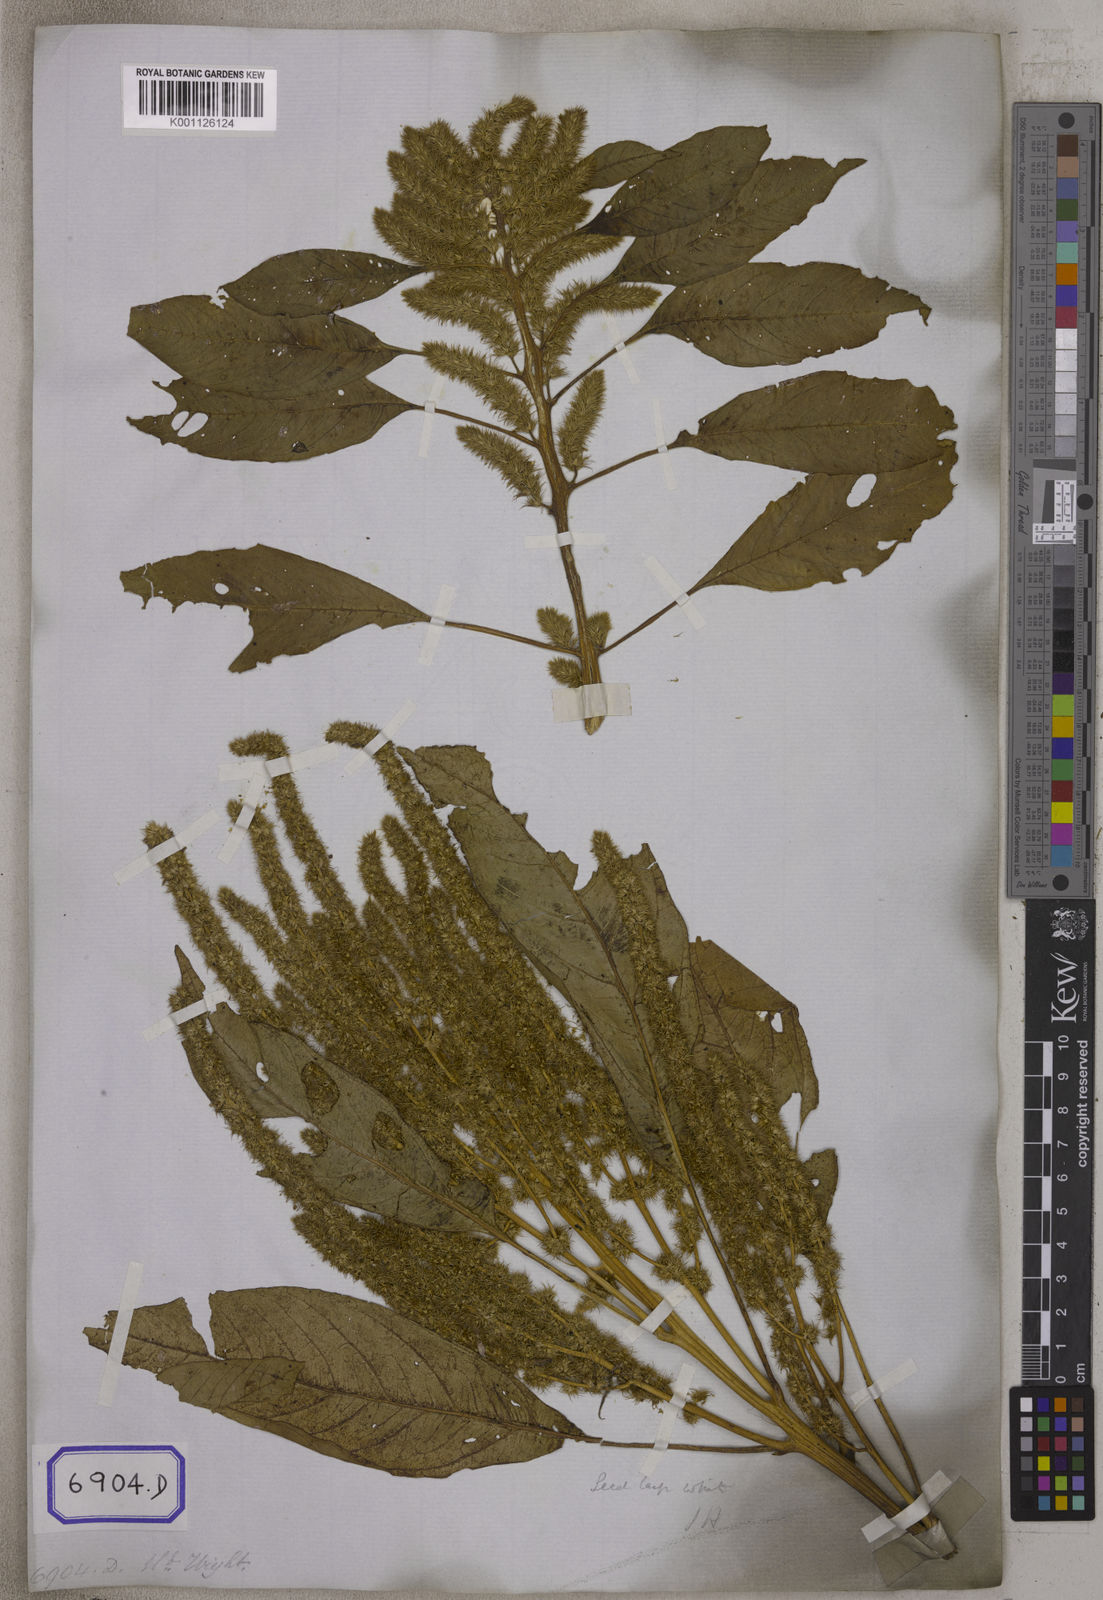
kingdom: Plantae
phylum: Tracheophyta
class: Magnoliopsida
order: Caryophyllales
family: Amaranthaceae
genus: Amaranthus
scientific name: Amaranthus
